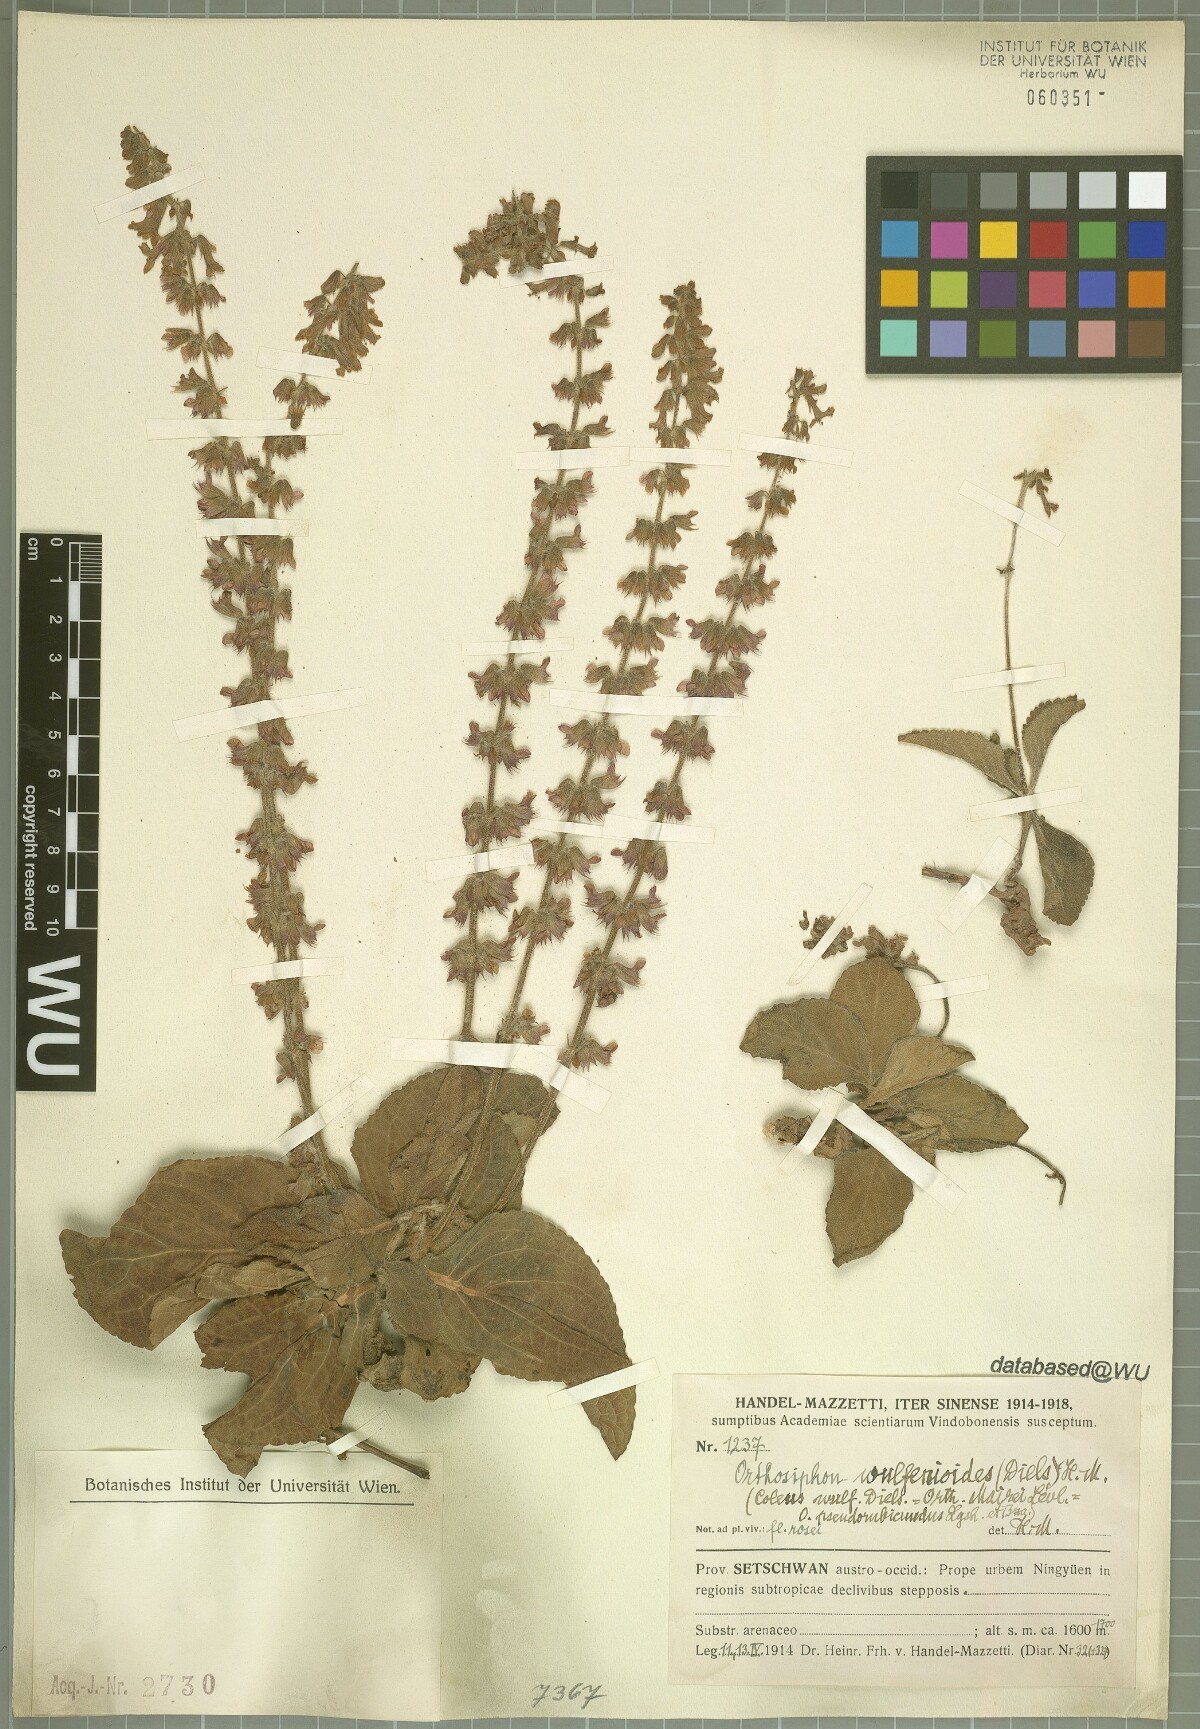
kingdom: Plantae
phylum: Tracheophyta
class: Magnoliopsida
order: Lamiales
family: Lamiaceae
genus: Orthosiphon
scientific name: Orthosiphon wulfenioides
